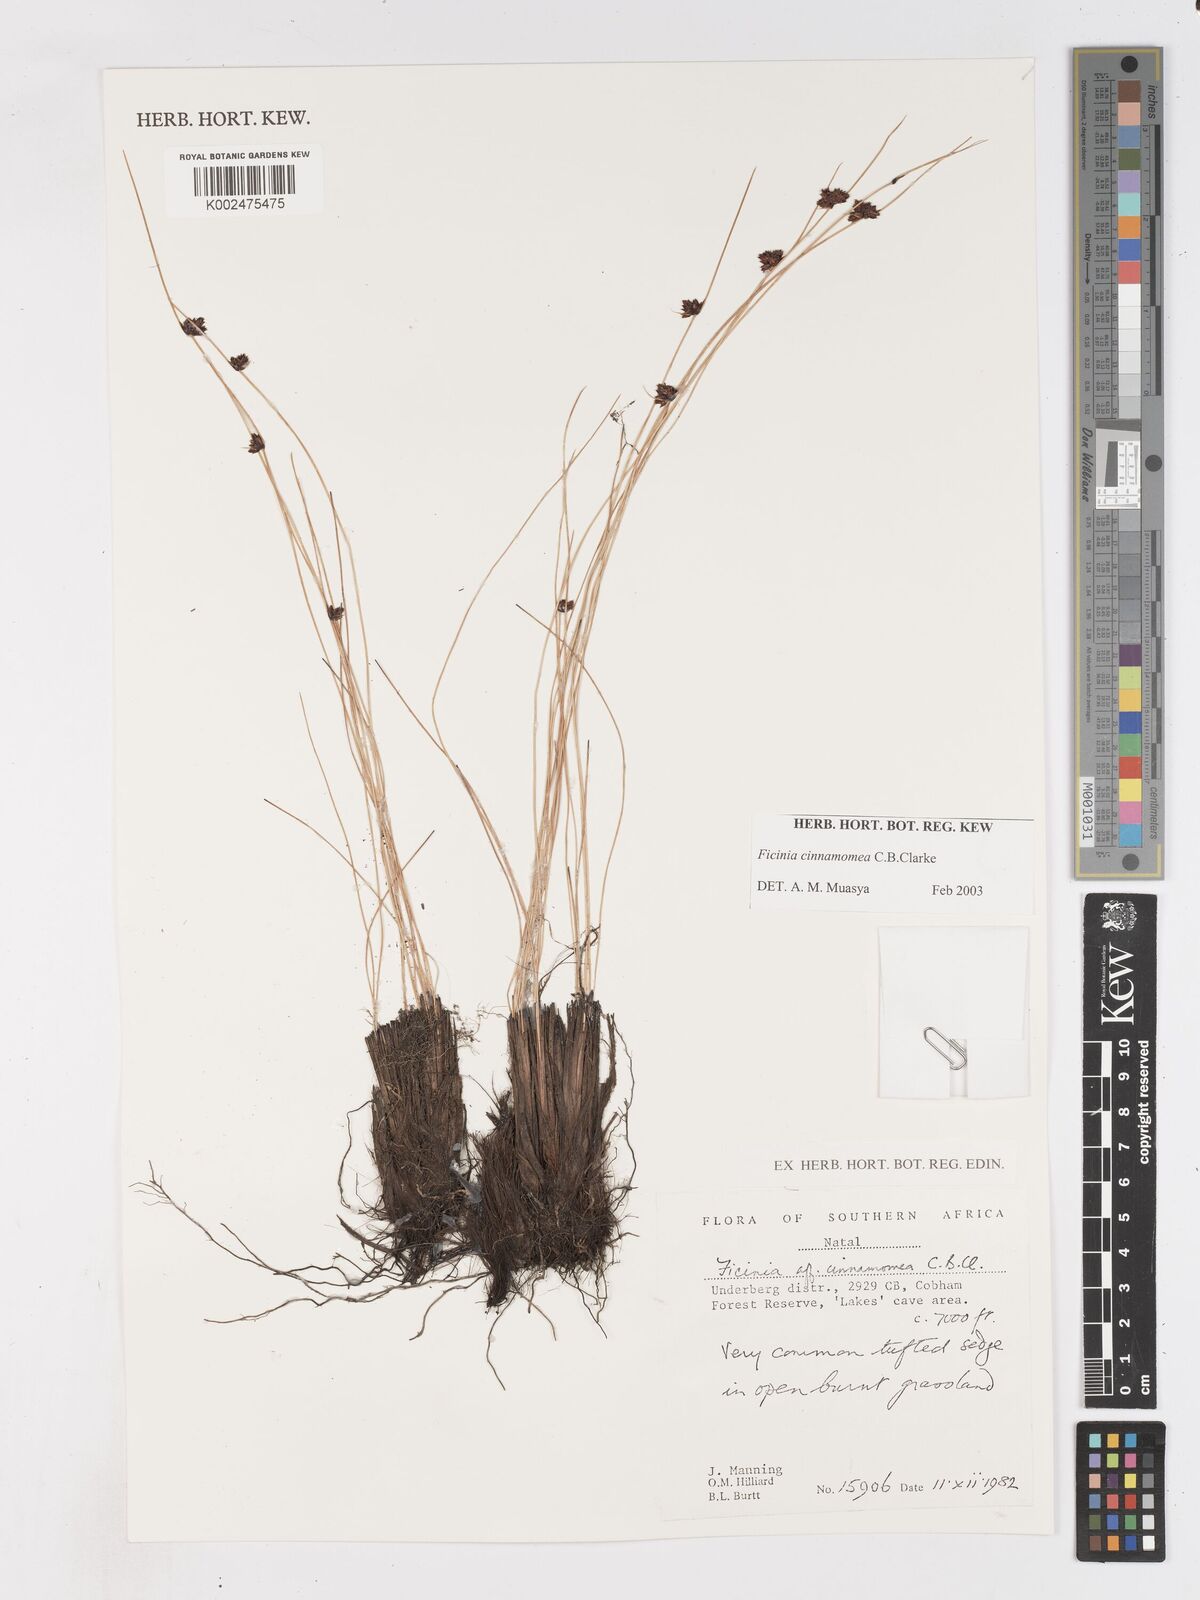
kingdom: Plantae
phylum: Tracheophyta
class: Liliopsida
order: Poales
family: Cyperaceae
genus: Ficinia
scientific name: Ficinia cinnamomea
